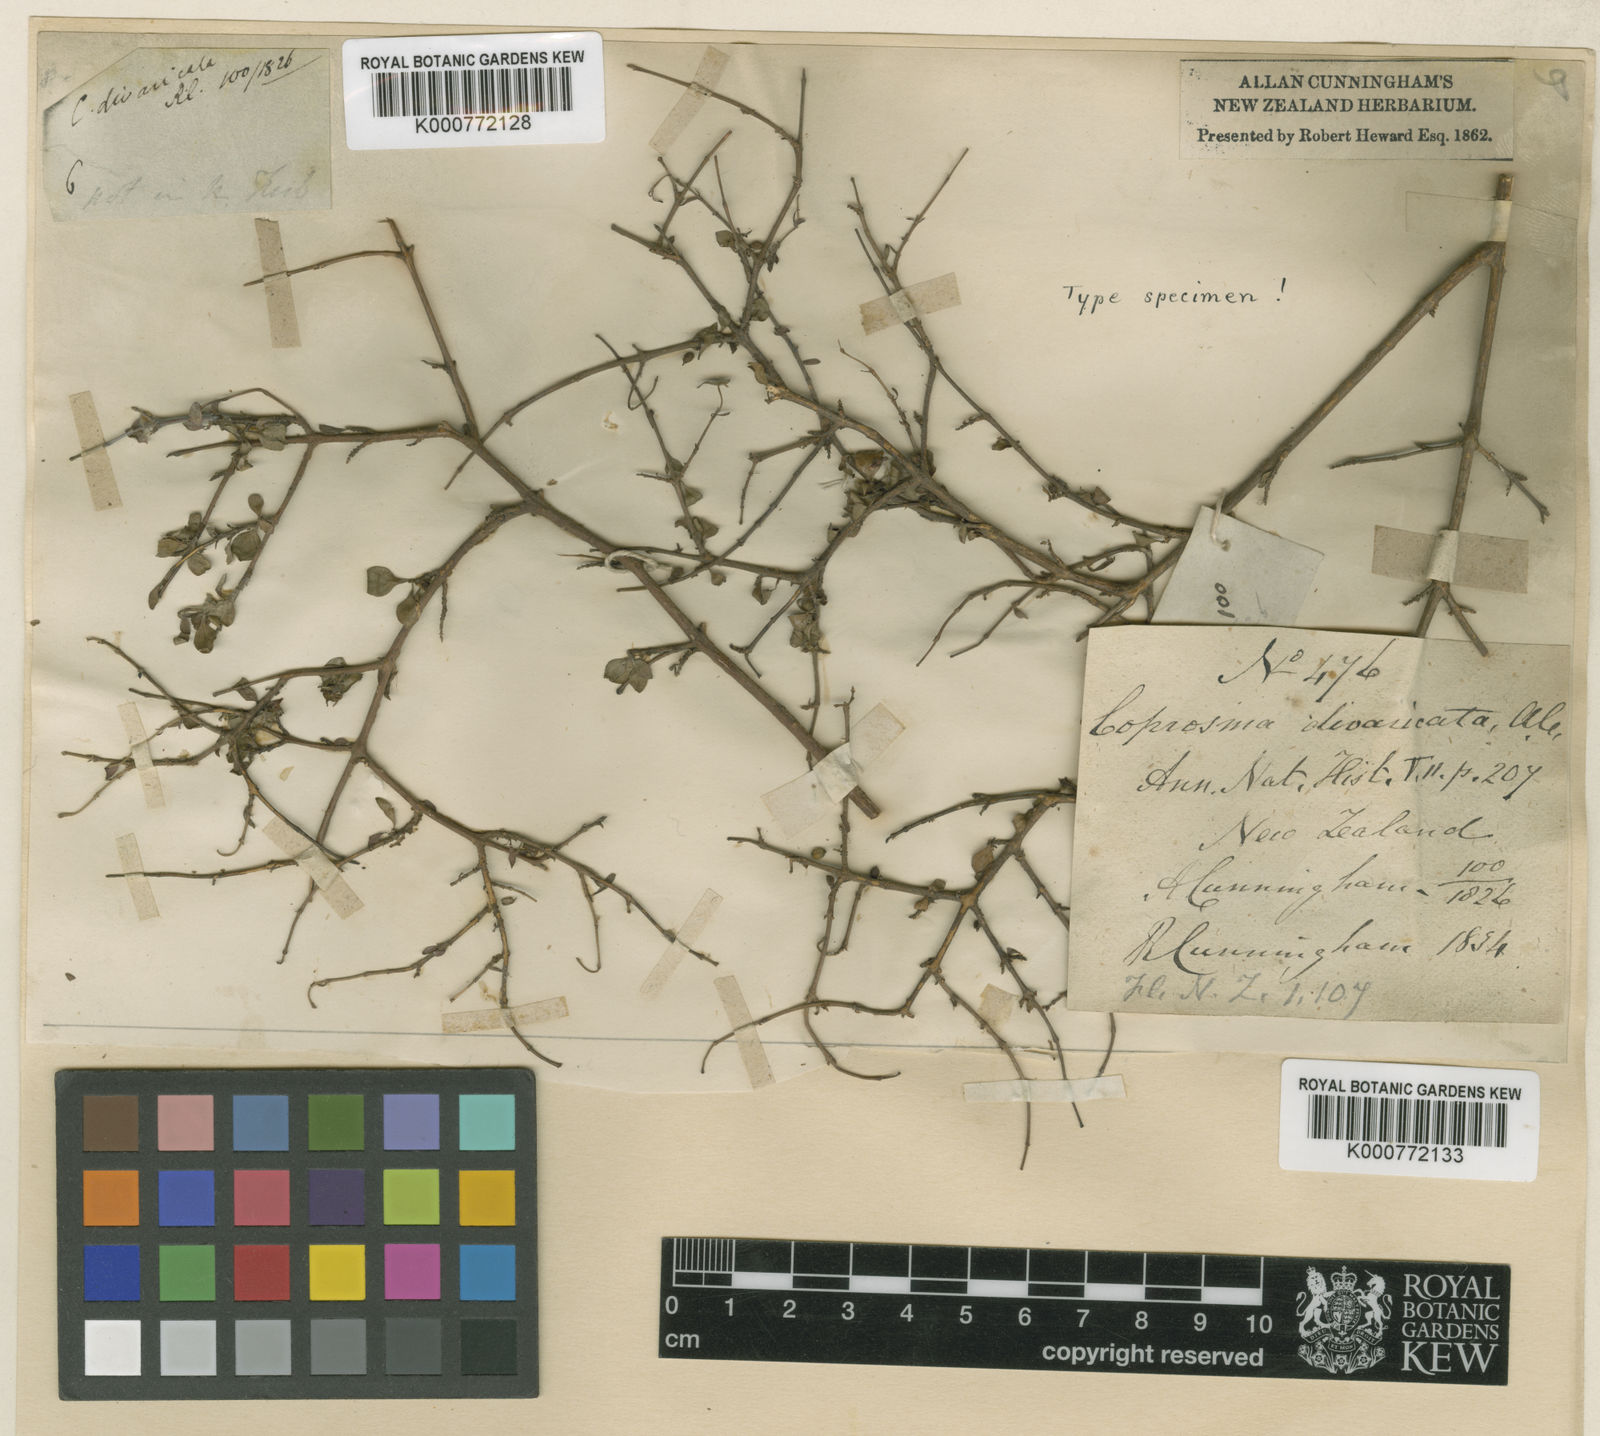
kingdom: Plantae
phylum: Tracheophyta
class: Magnoliopsida
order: Gentianales
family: Rubiaceae
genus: Coprosma
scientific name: Coprosma rhamnoides
